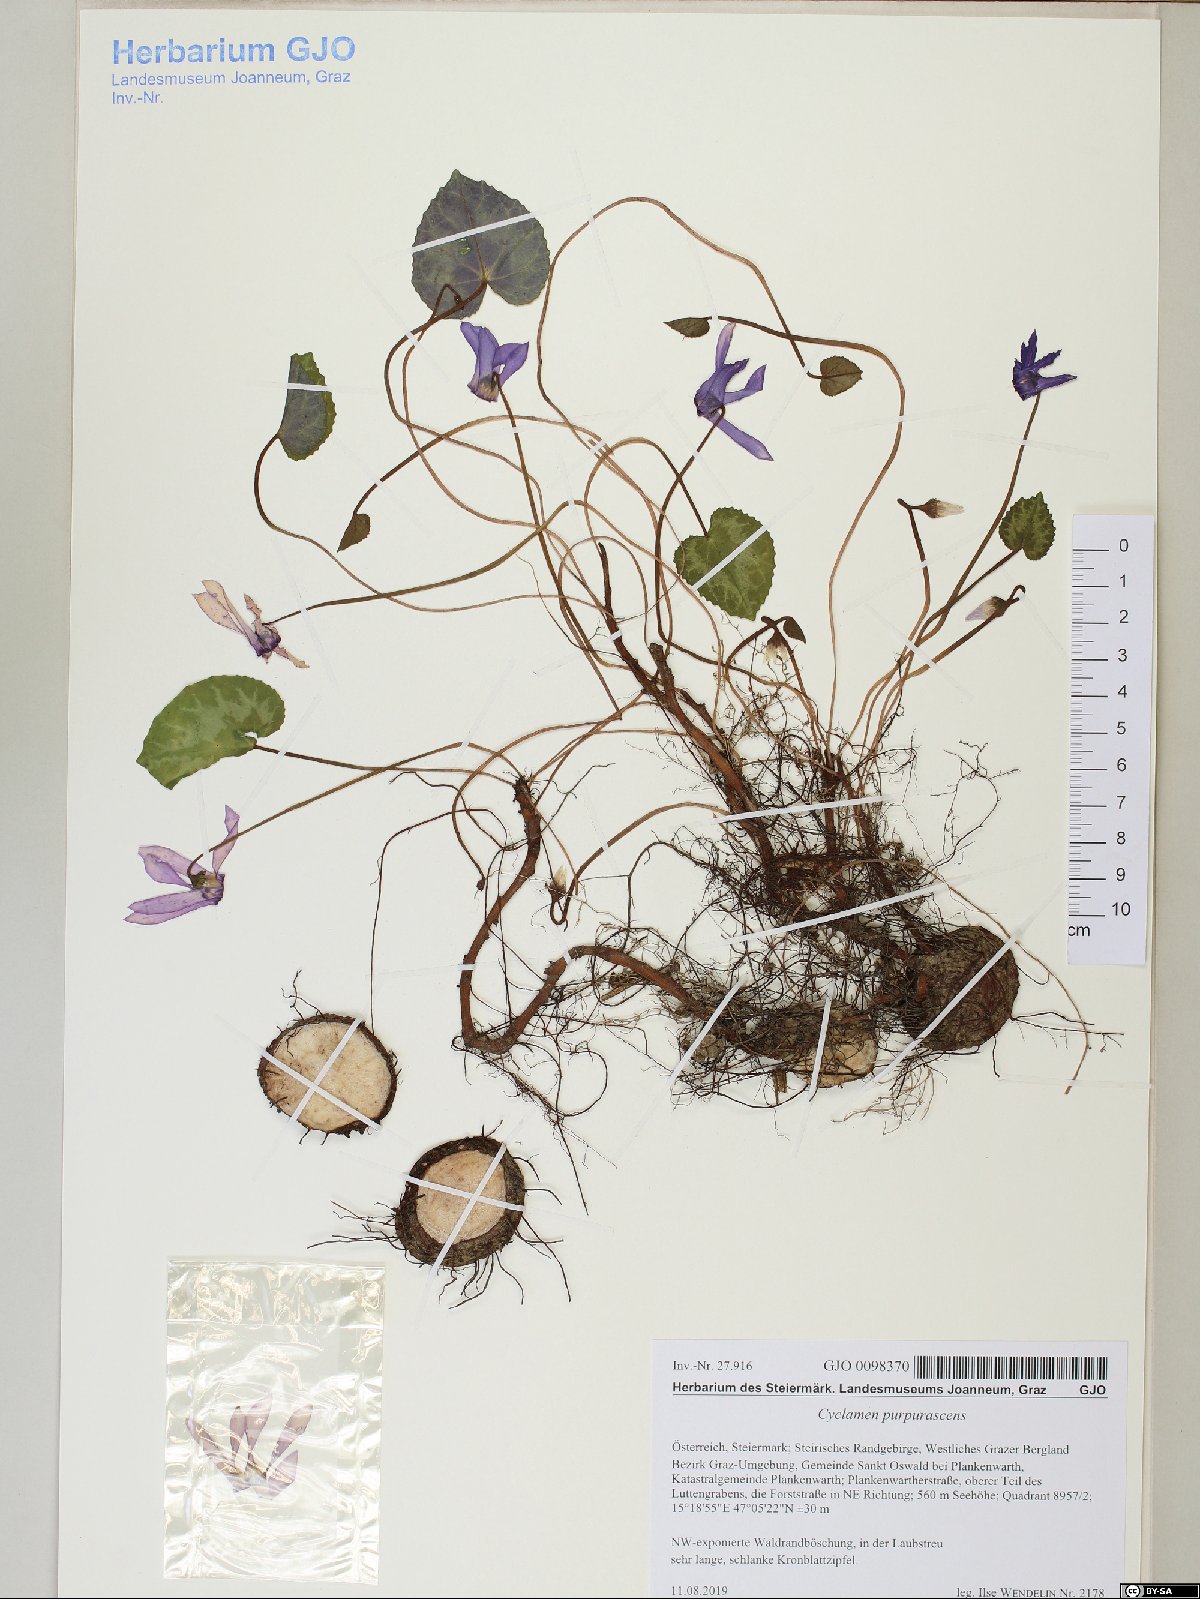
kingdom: Plantae
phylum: Tracheophyta
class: Magnoliopsida
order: Ericales
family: Primulaceae
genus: Cyclamen
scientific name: Cyclamen purpurascens
